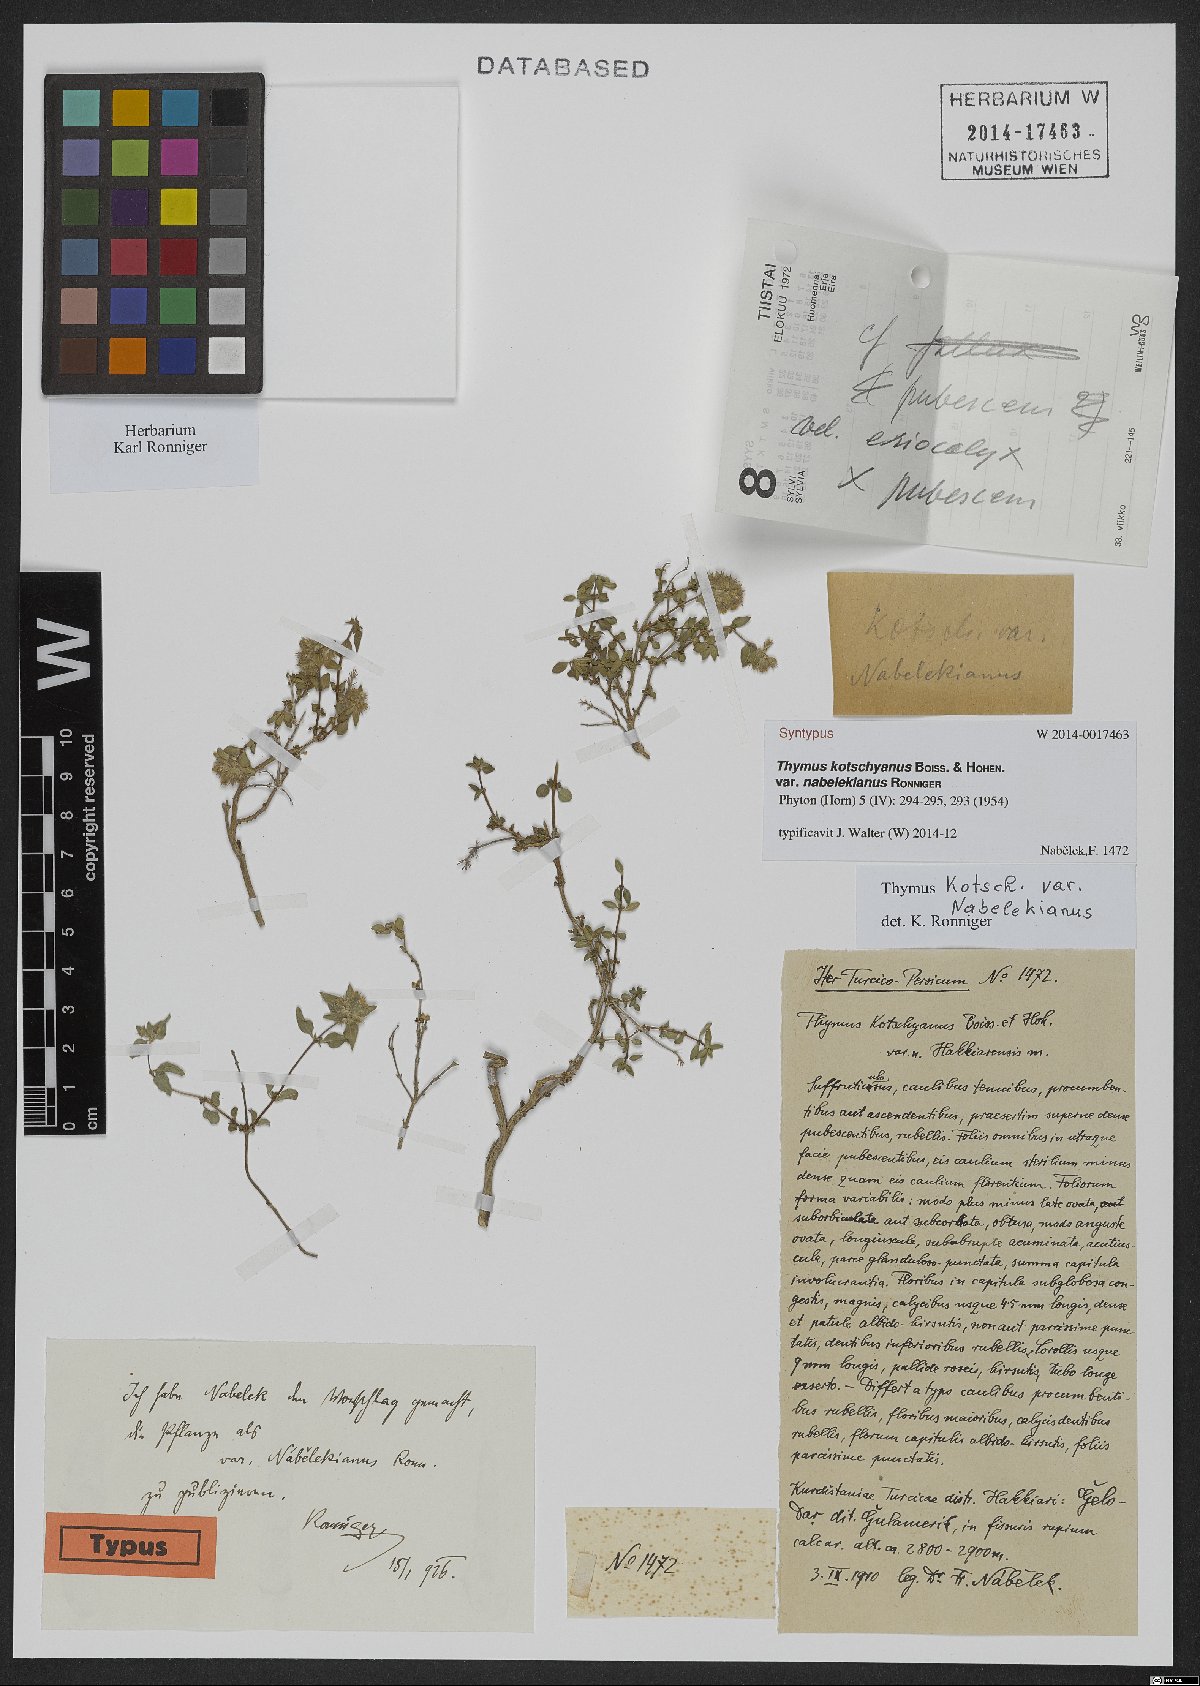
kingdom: Plantae
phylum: Tracheophyta
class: Magnoliopsida
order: Lamiales
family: Lamiaceae
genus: Thymus
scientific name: Thymus kotschyanus
